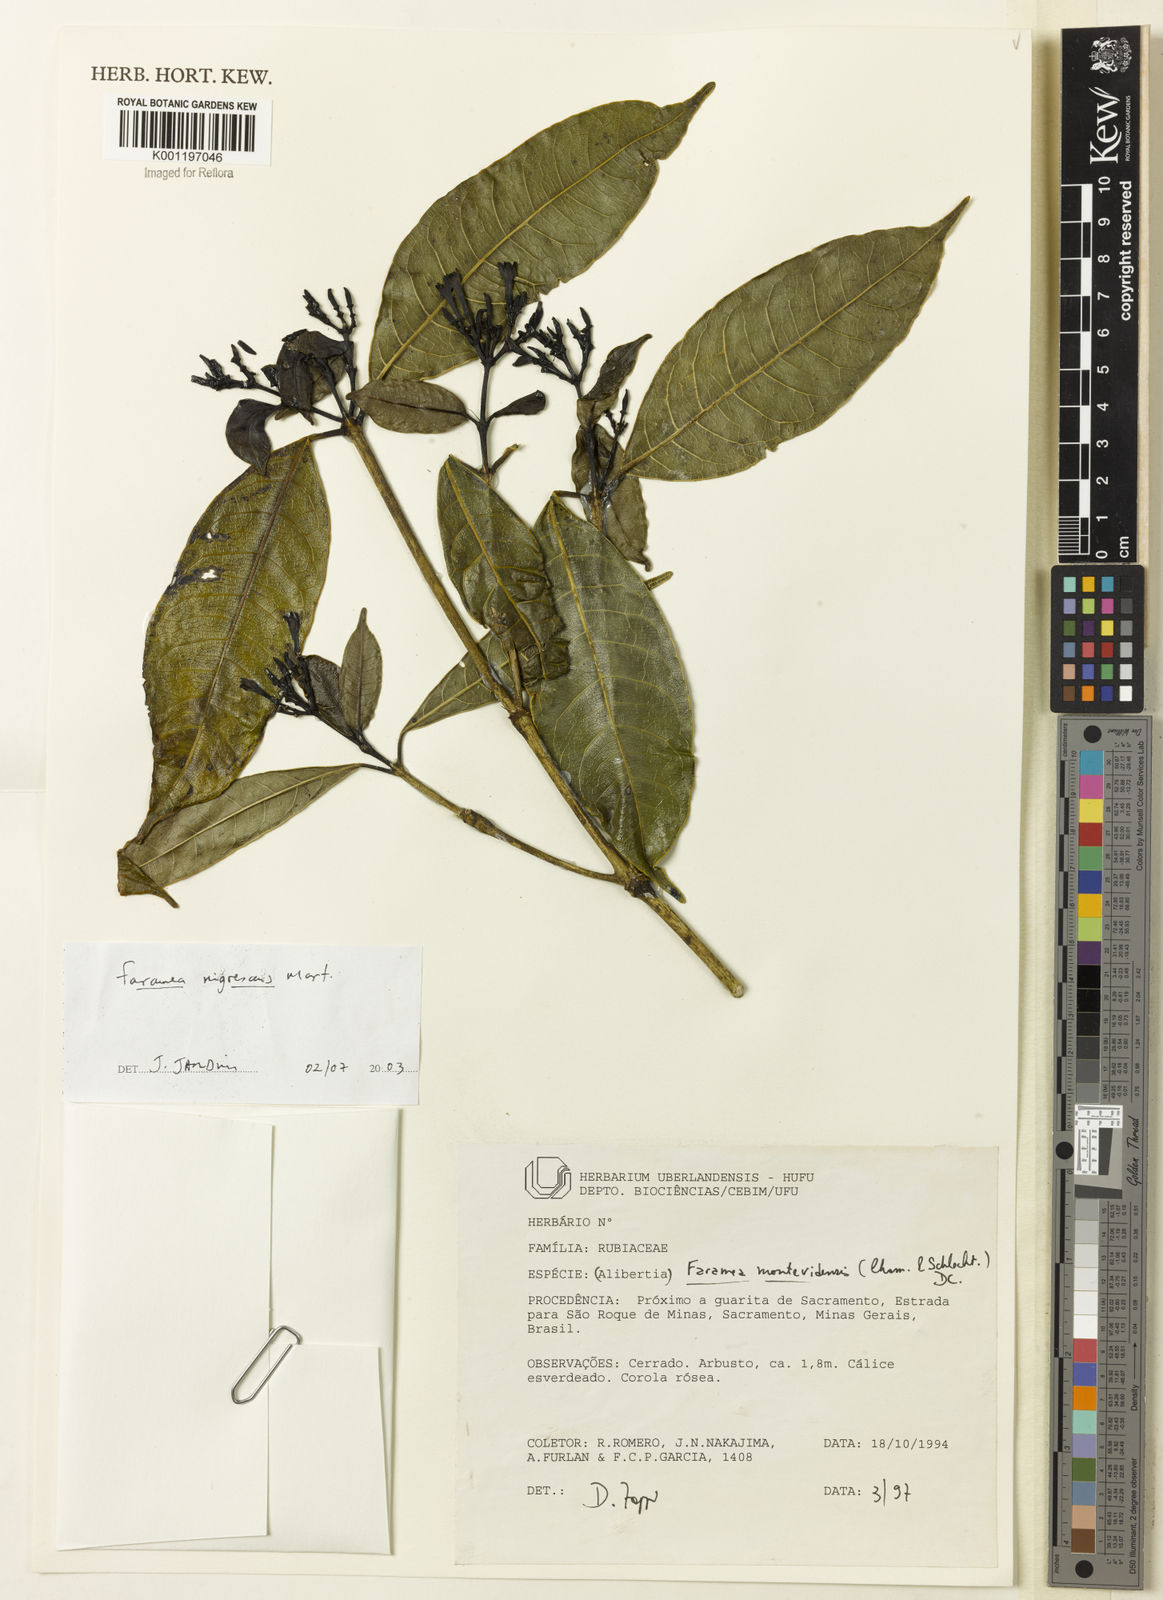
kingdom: Plantae
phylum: Tracheophyta
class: Magnoliopsida
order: Gentianales
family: Rubiaceae
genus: Faramea
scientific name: Faramea nigrescens
